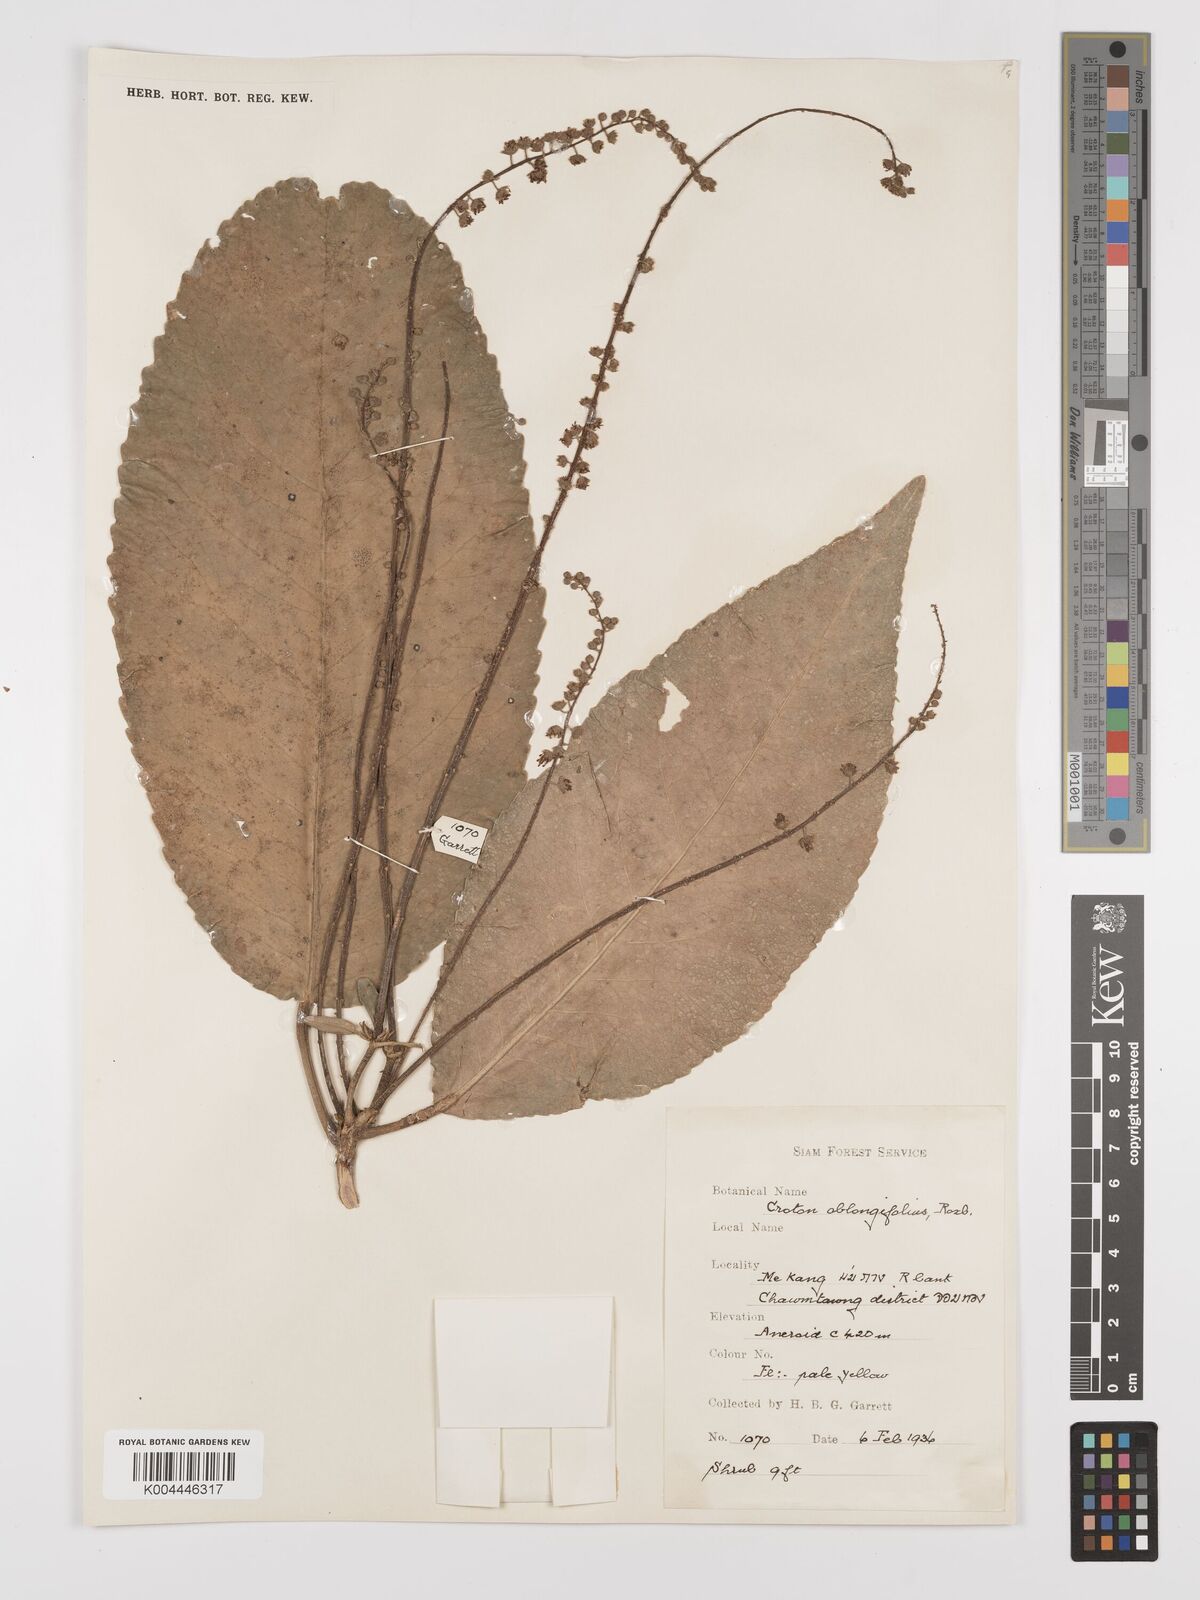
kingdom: Plantae
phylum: Tracheophyta
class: Magnoliopsida
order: Malpighiales
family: Euphorbiaceae
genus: Croton
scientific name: Croton
